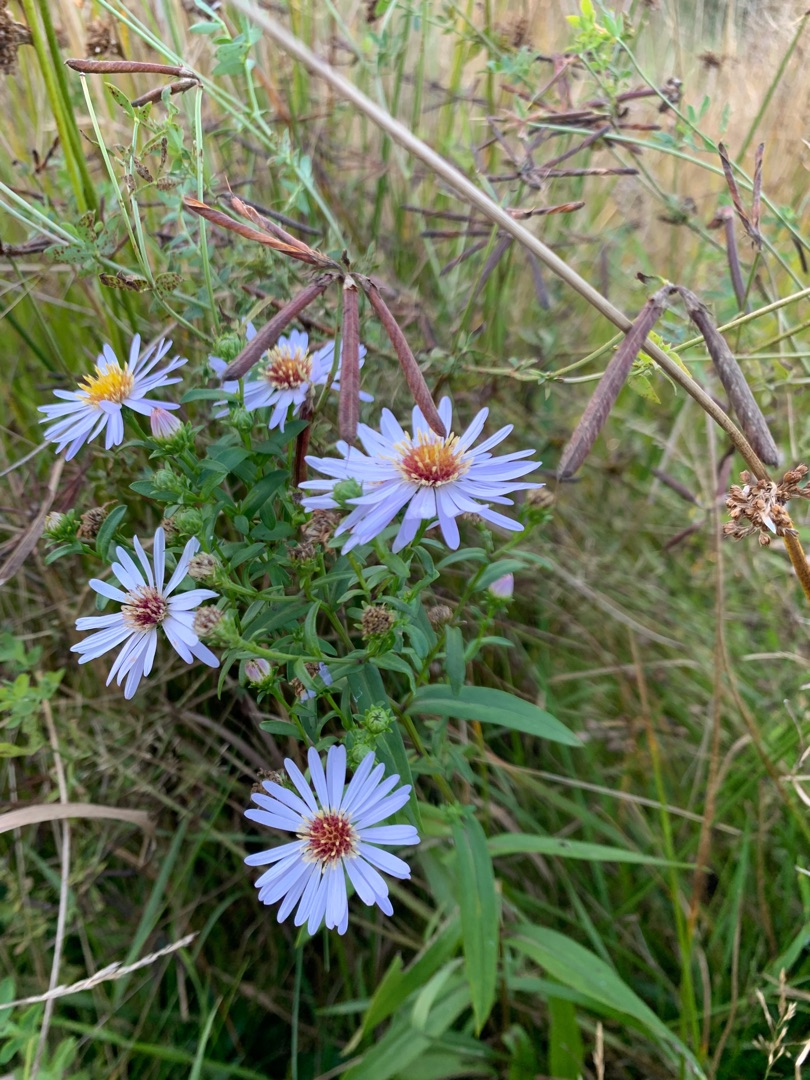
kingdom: Plantae
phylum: Tracheophyta
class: Magnoliopsida
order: Asterales
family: Asteraceae
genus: Symphyotrichum
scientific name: Symphyotrichum versicolor
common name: Broget asters
